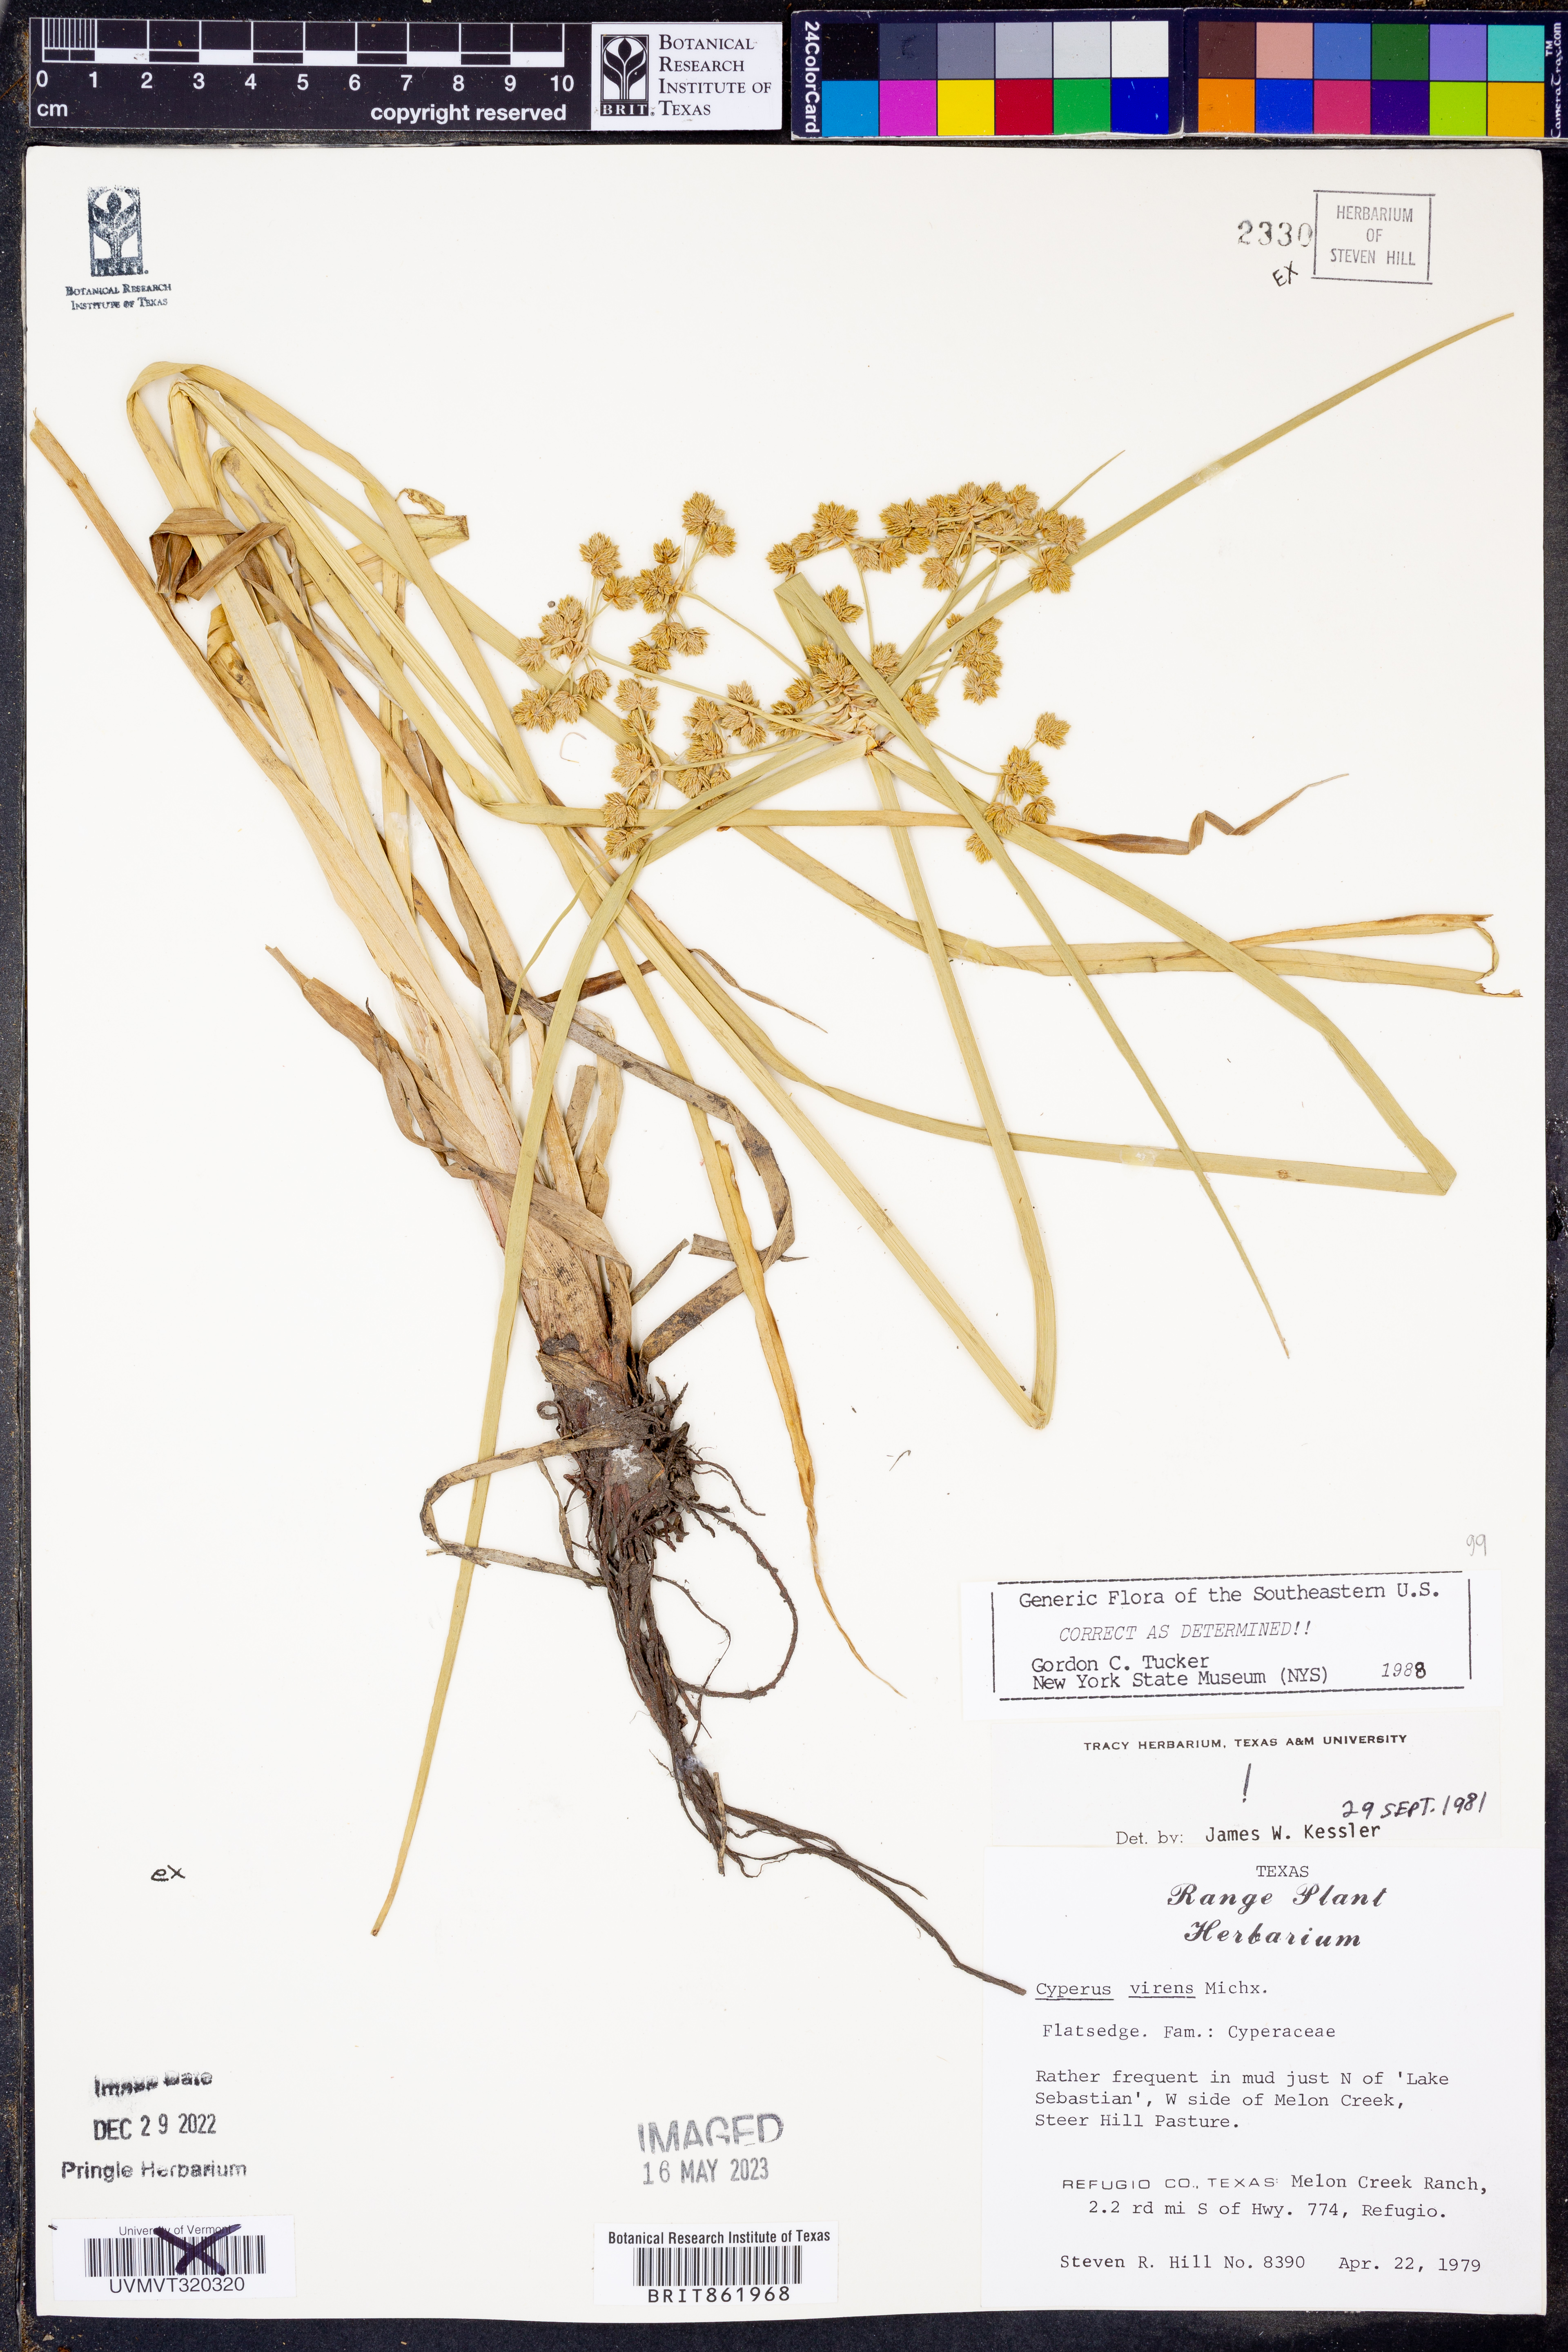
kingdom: Plantae
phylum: Tracheophyta
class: Liliopsida
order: Poales
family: Cyperaceae
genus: Cyperus
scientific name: Cyperus virens
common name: Green flatsedge
